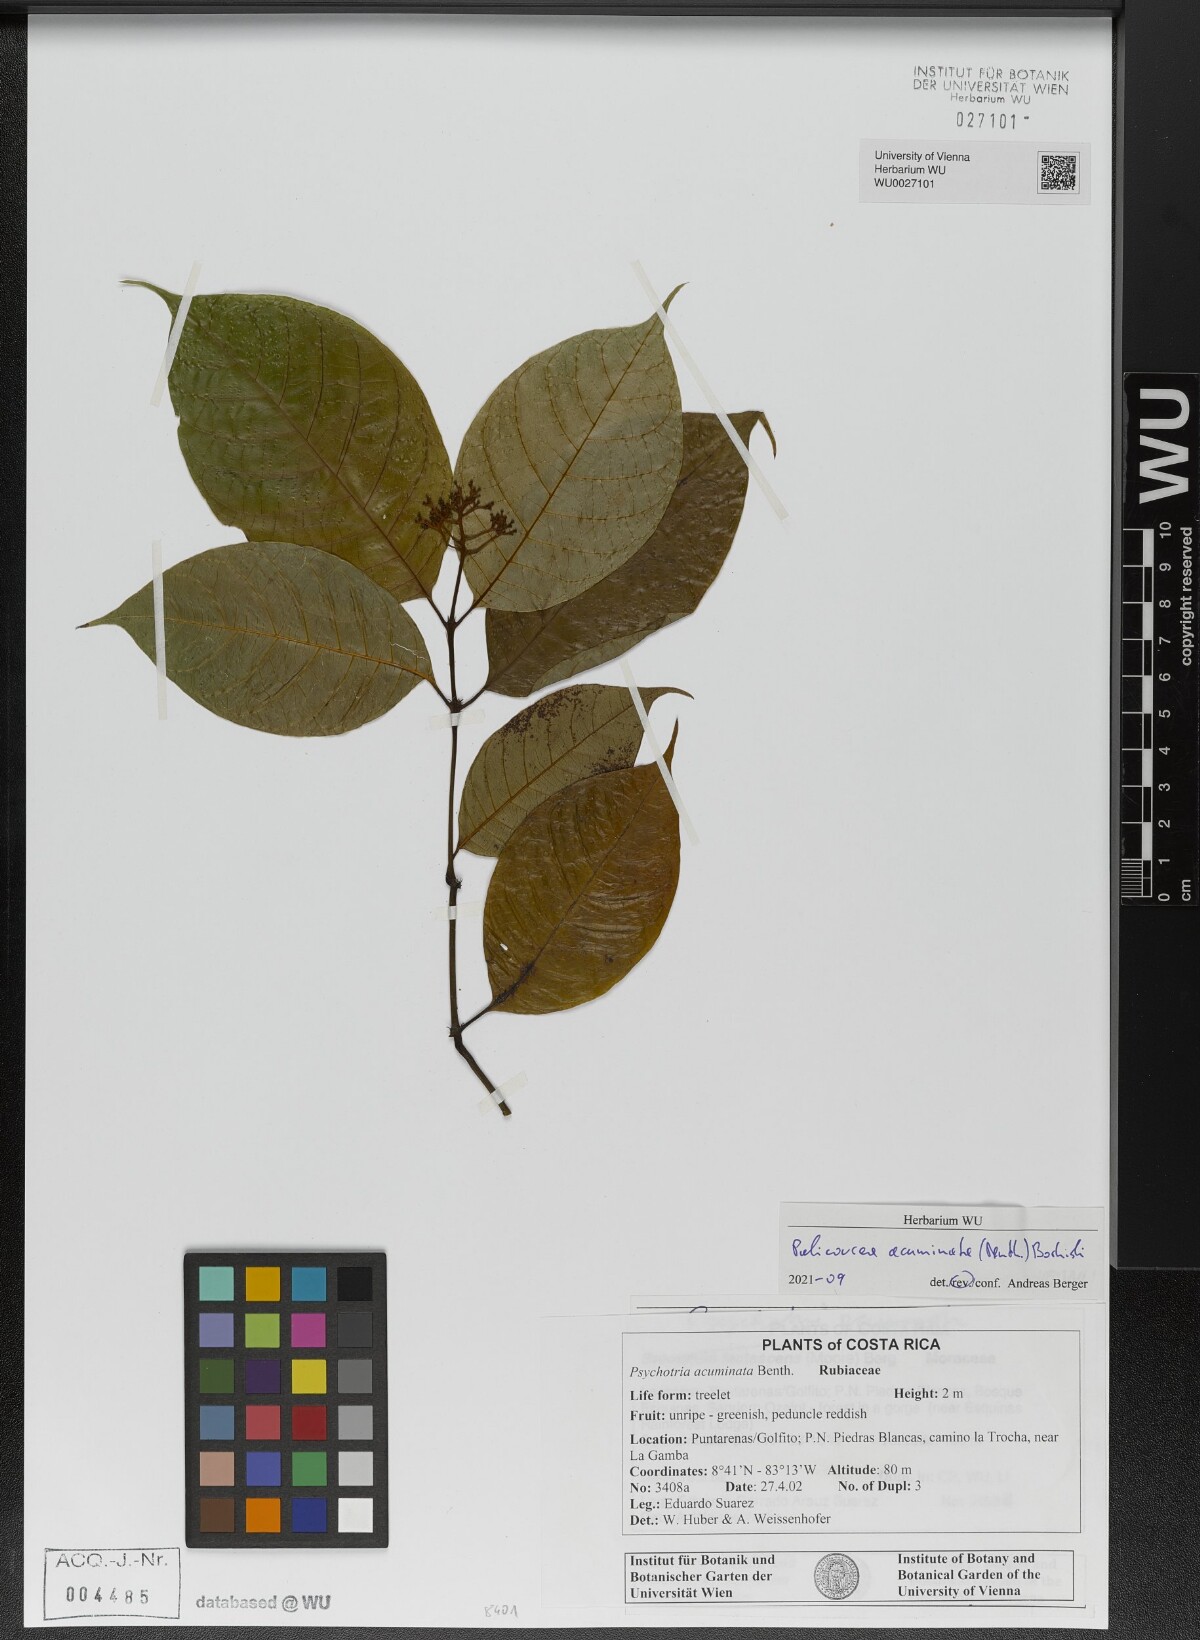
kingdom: Plantae
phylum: Tracheophyta
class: Magnoliopsida
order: Gentianales
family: Rubiaceae
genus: Palicourea
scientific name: Palicourea acuminata
